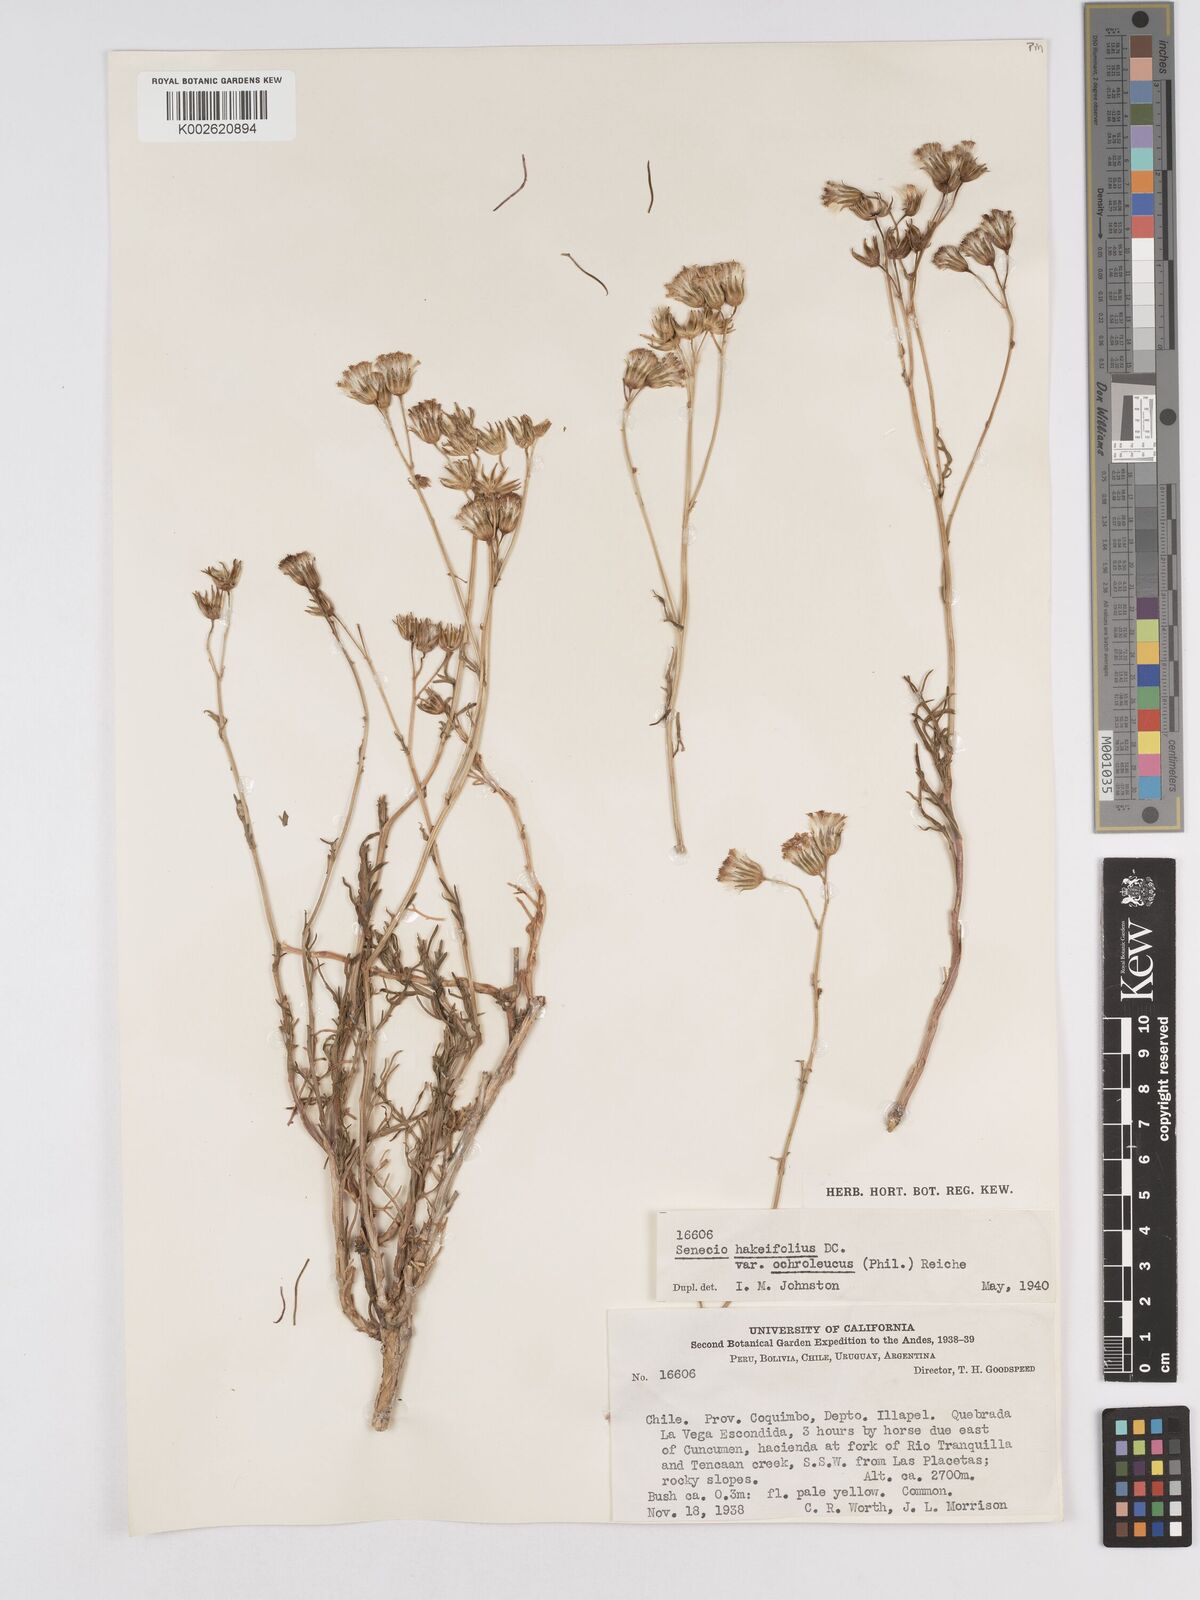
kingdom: Plantae
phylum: Tracheophyta
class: Magnoliopsida
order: Asterales
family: Asteraceae
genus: Senecio
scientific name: Senecio hakeifolius
